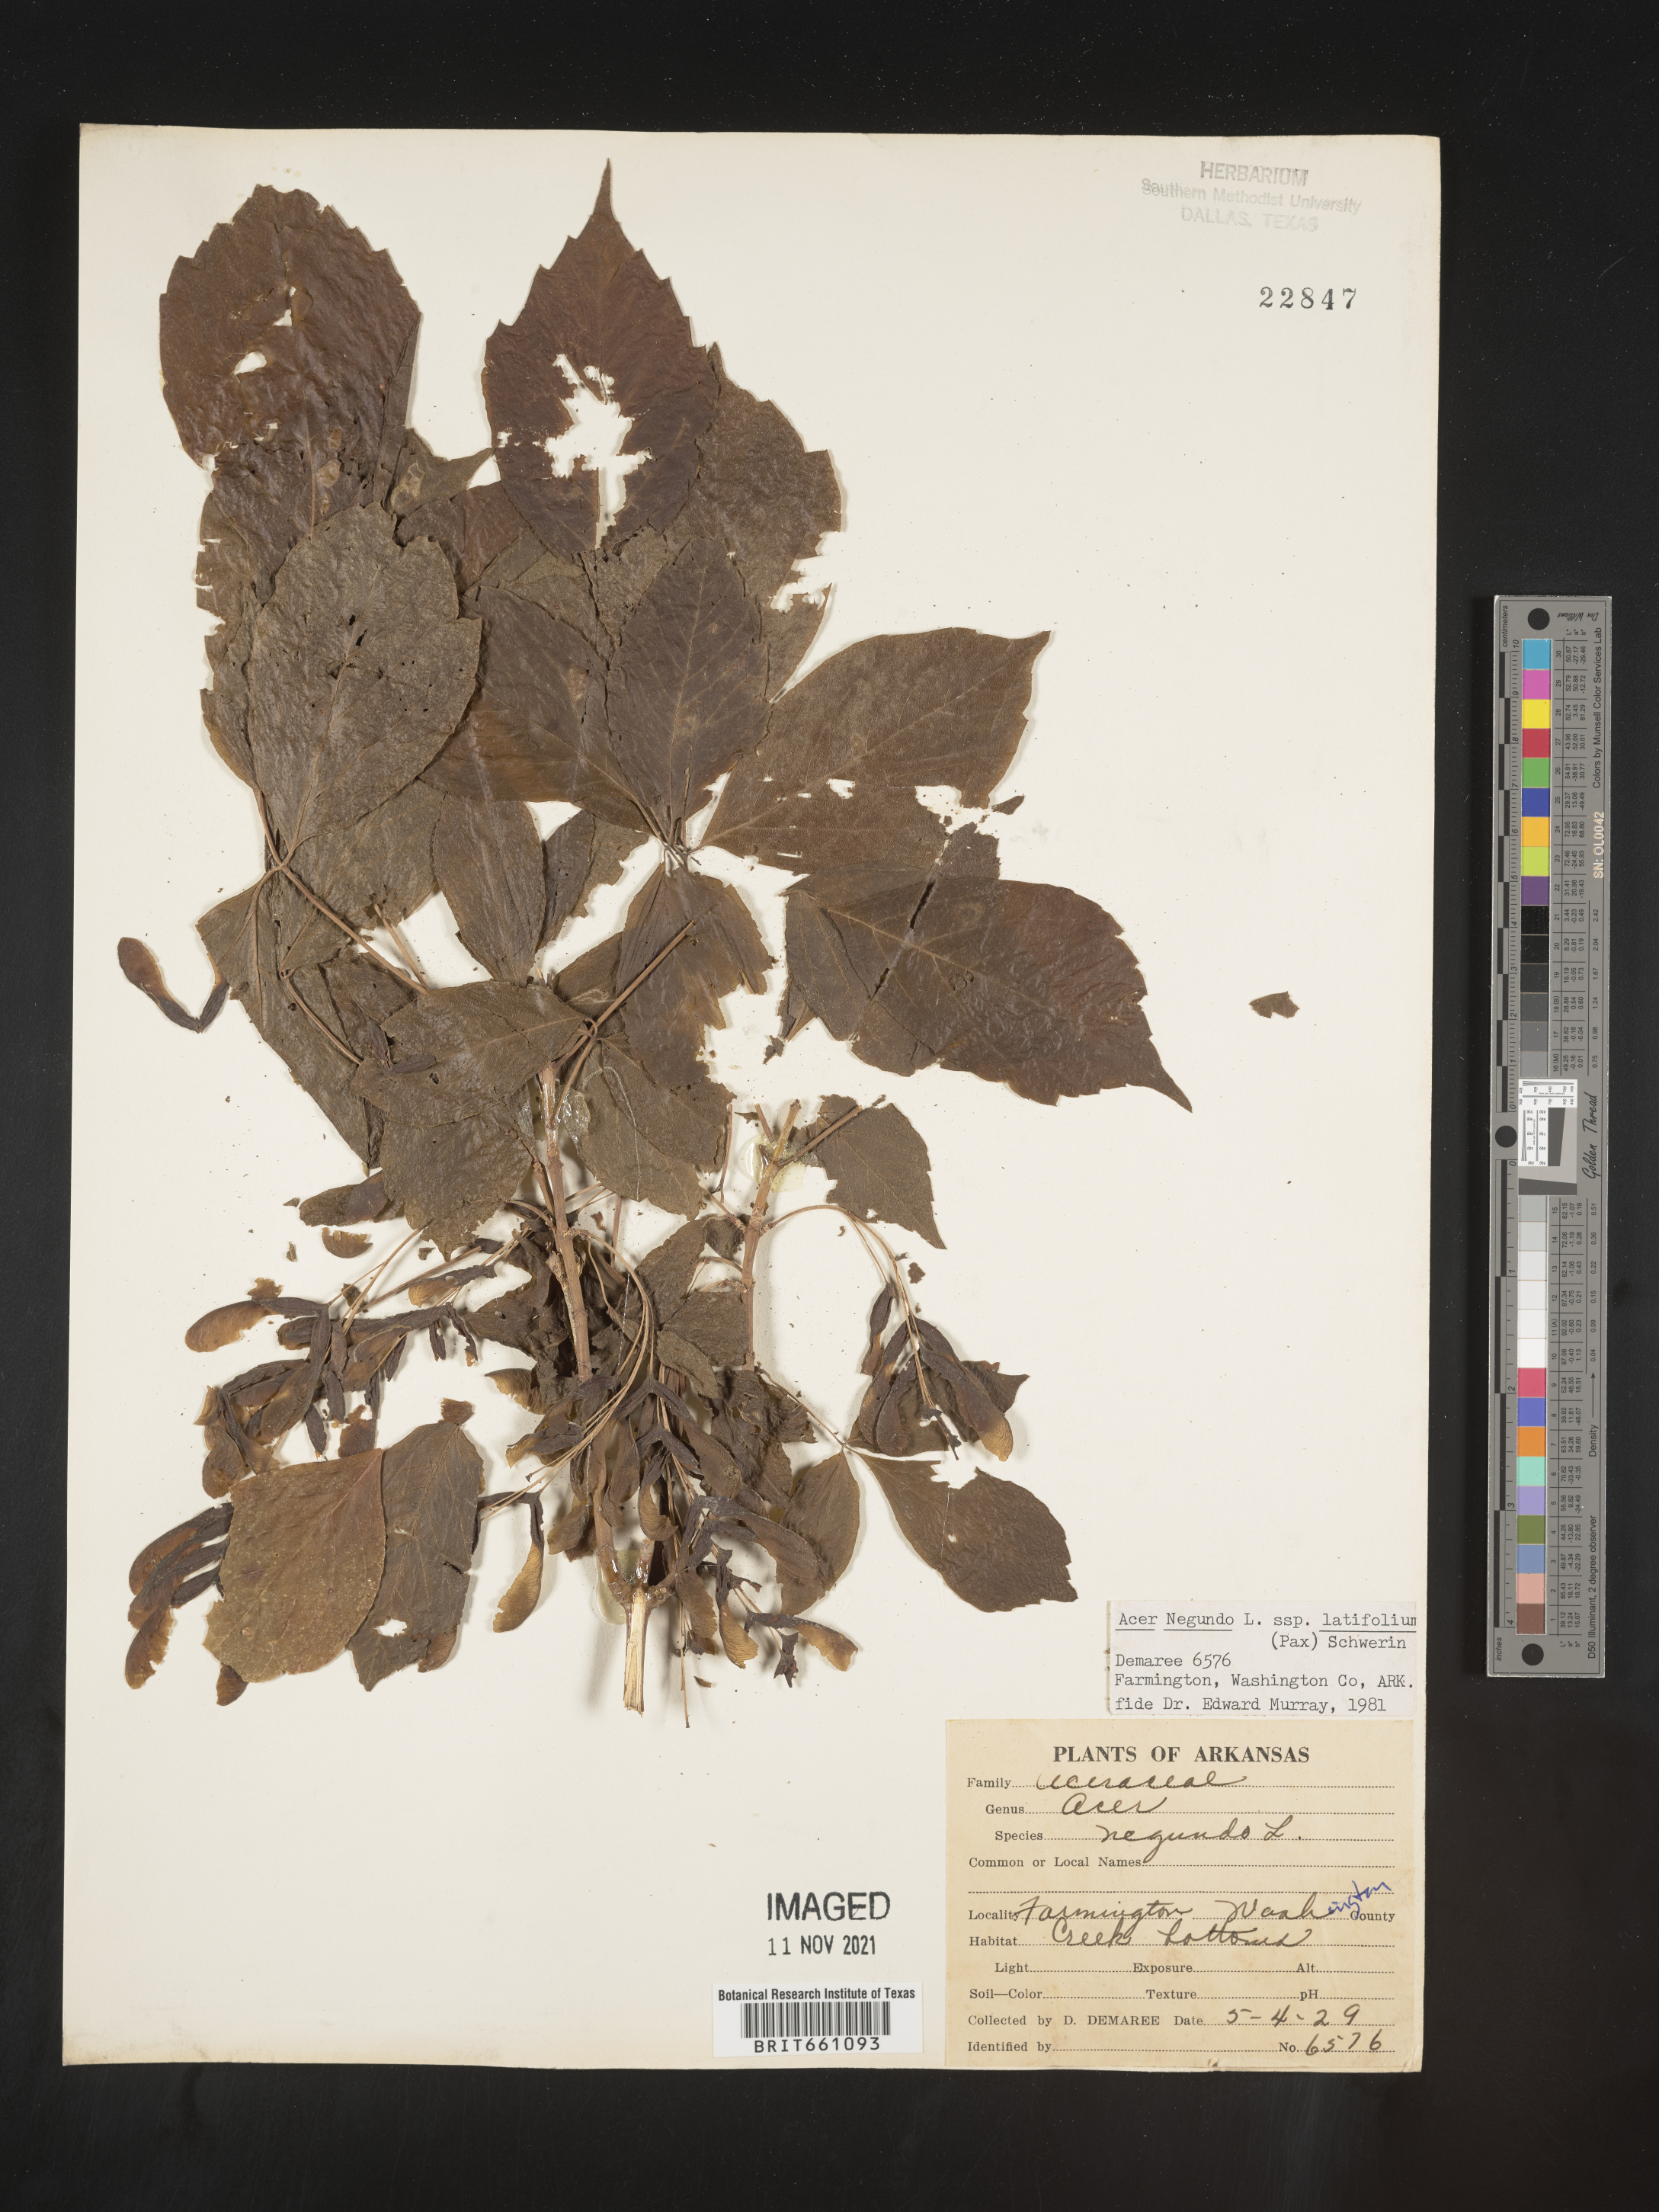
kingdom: Plantae
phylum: Tracheophyta
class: Magnoliopsida
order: Sapindales
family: Sapindaceae
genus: Acer
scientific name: Acer negundo
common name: Ashleaf maple
